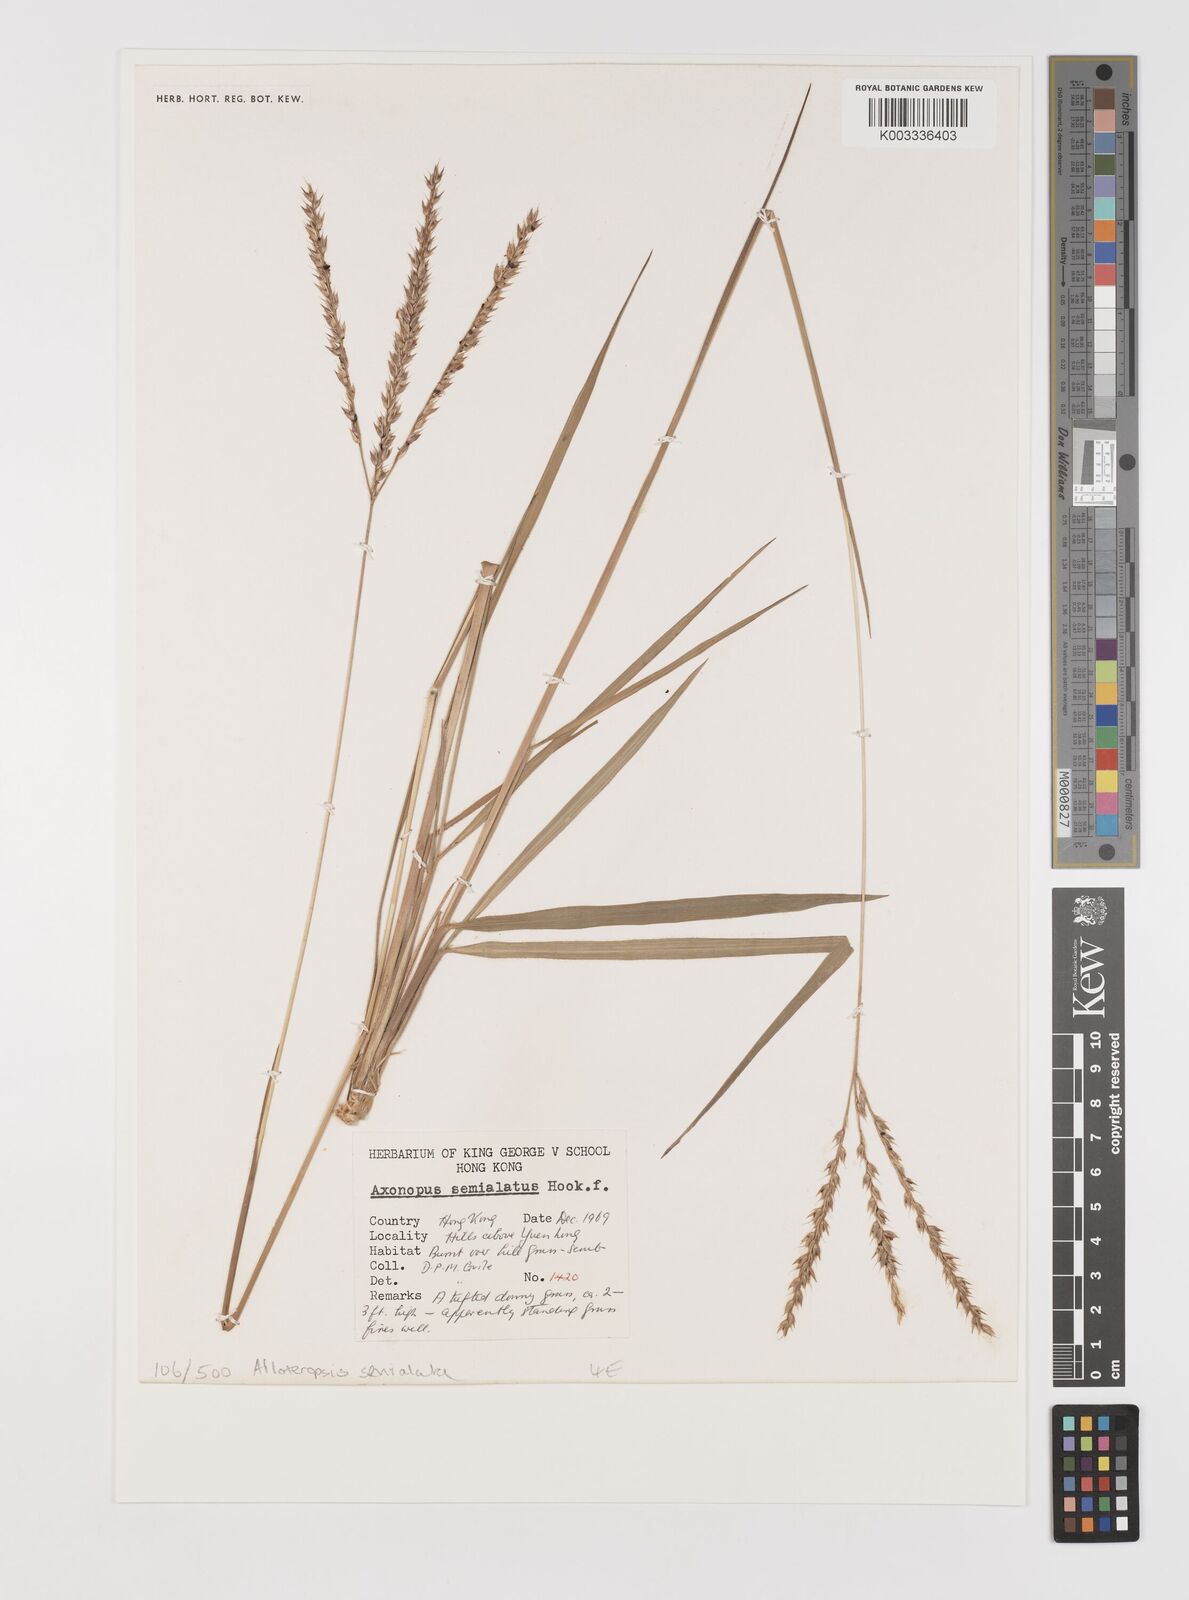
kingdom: Plantae
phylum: Tracheophyta
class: Liliopsida
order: Poales
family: Poaceae
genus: Alloteropsis
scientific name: Alloteropsis semialata
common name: Cockatoo grass
